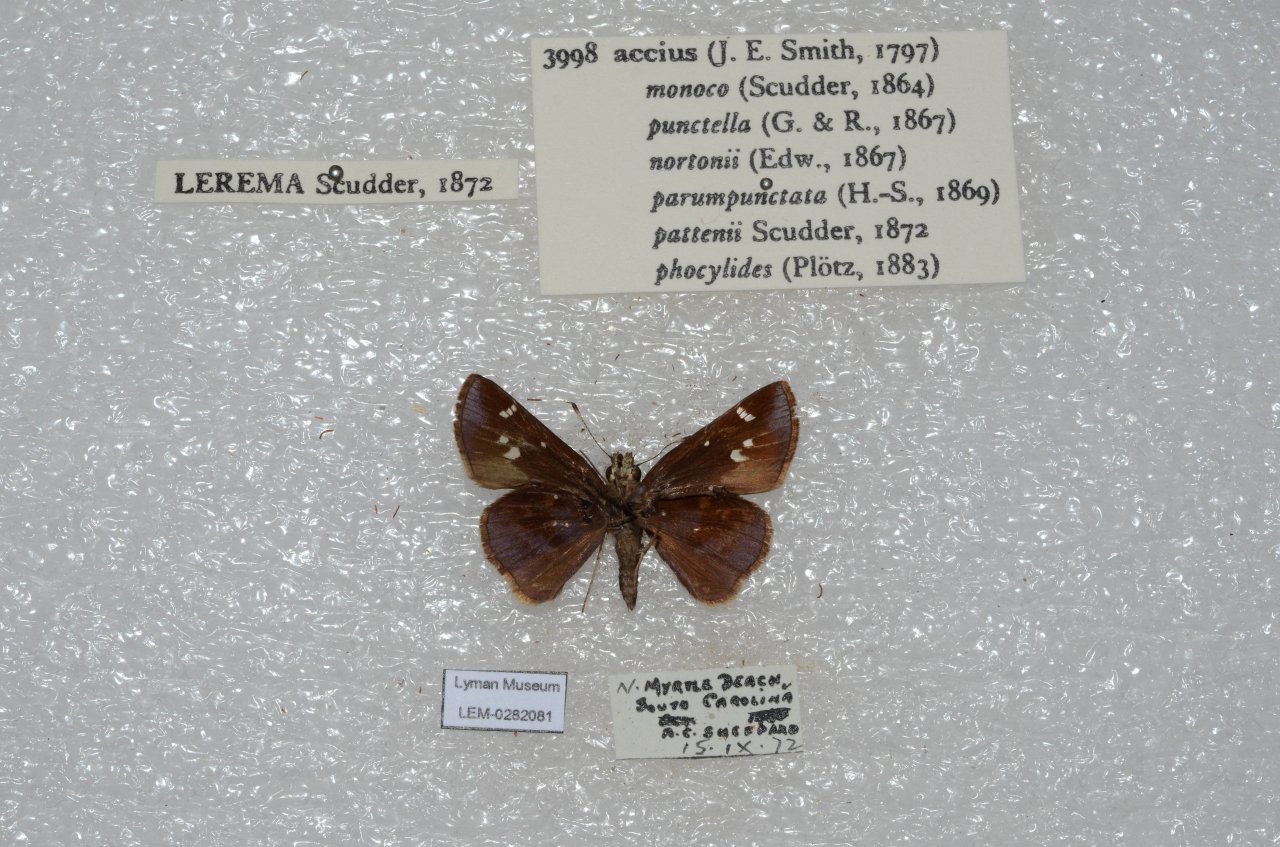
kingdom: Animalia
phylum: Arthropoda
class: Insecta
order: Lepidoptera
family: Hesperiidae
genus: Lerema
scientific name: Lerema accius
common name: Clouded Skipper
